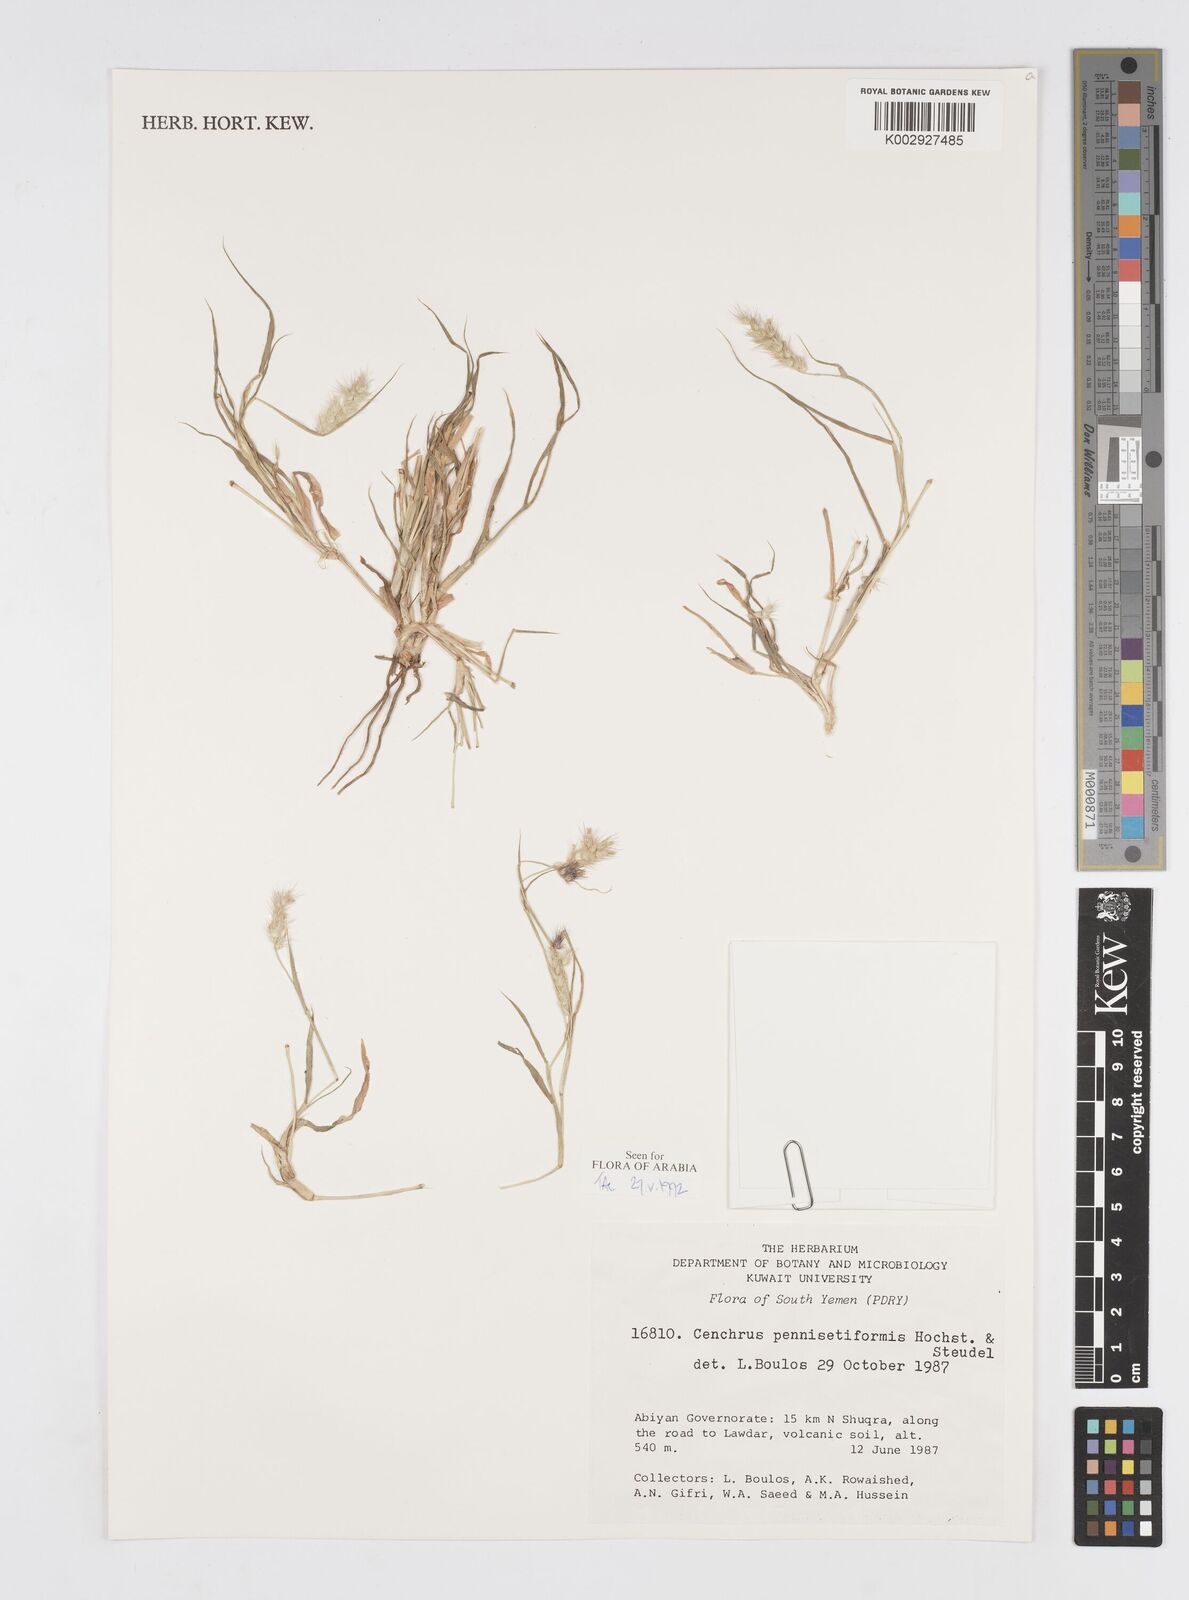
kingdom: Plantae
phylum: Tracheophyta
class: Liliopsida
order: Poales
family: Poaceae
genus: Cenchrus
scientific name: Cenchrus pennisetiformis
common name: Cloncurry
